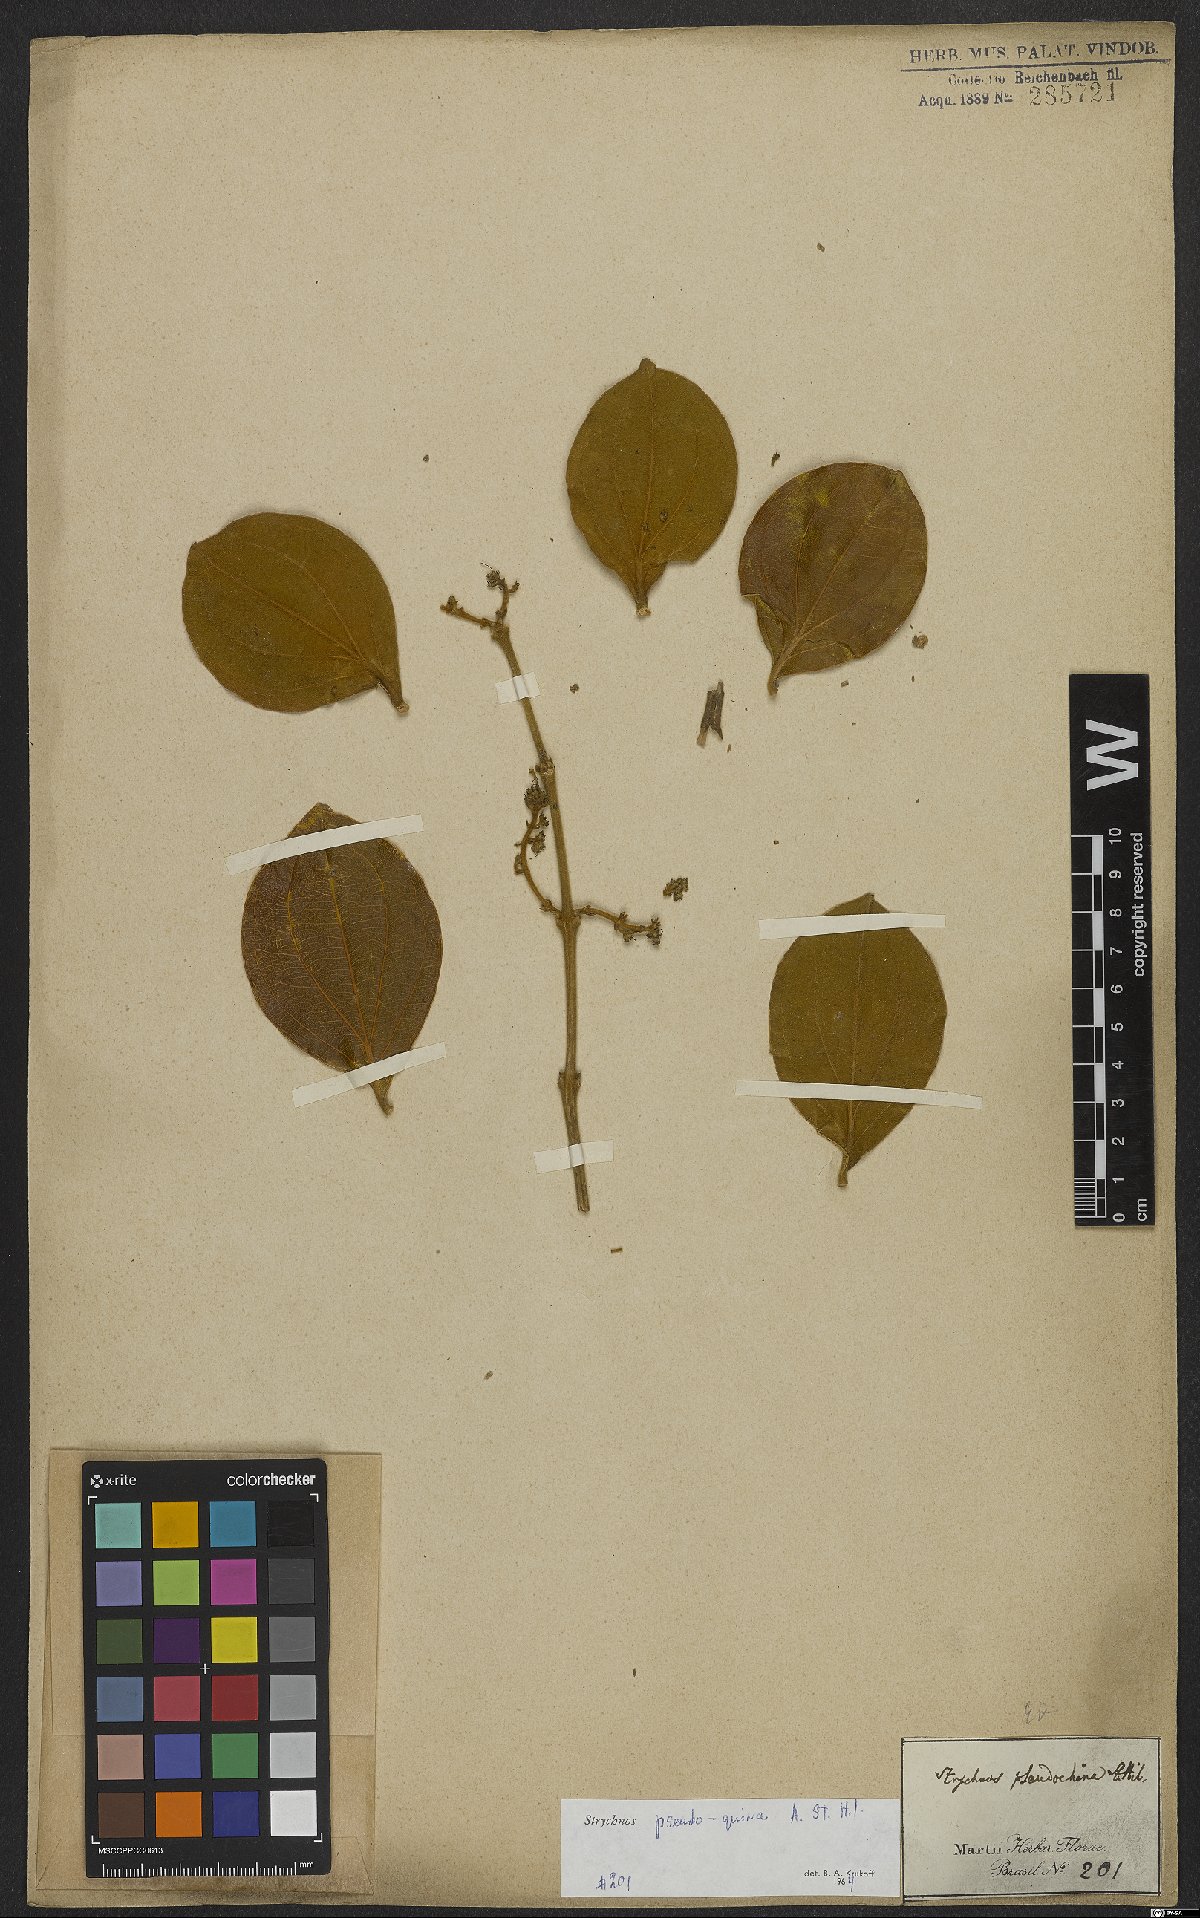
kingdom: Plantae
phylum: Tracheophyta
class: Magnoliopsida
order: Gentianales
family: Loganiaceae
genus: Strychnos
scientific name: Strychnos pseudoquina
